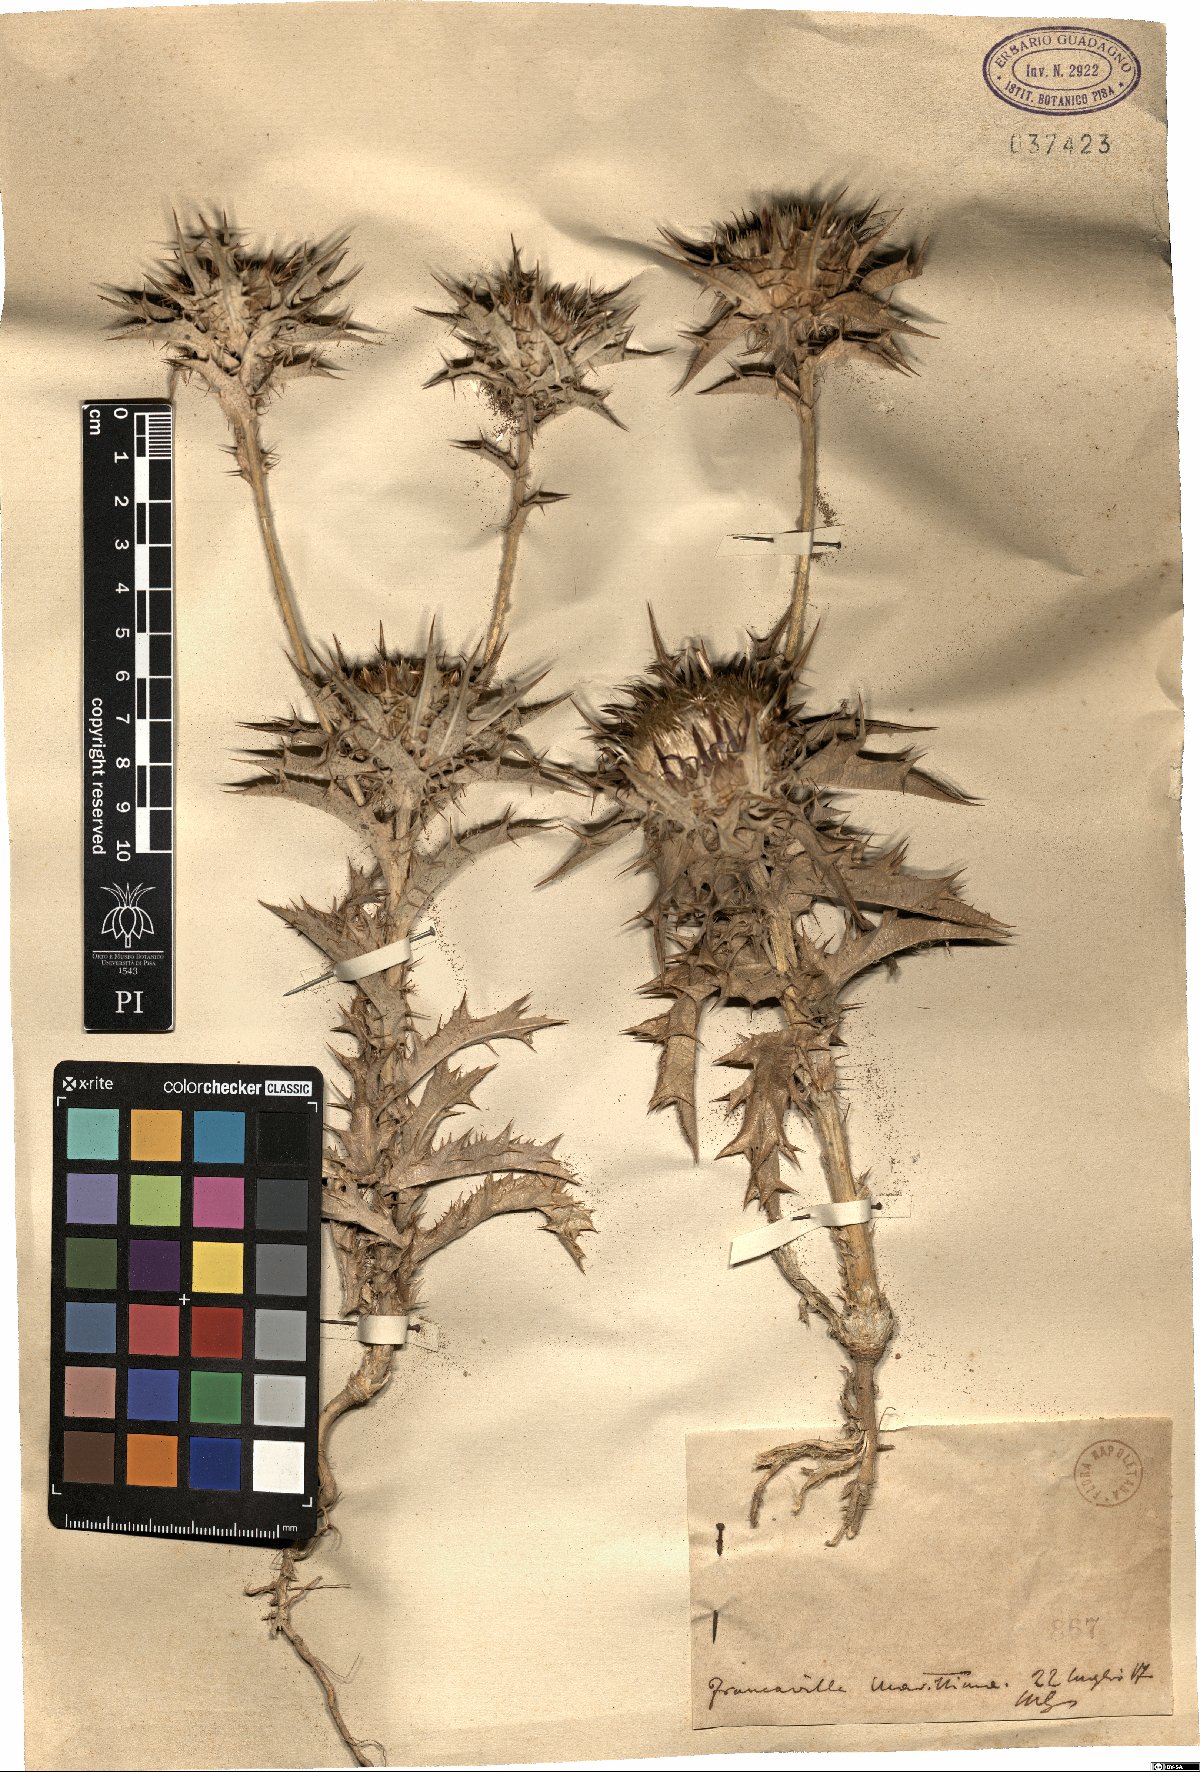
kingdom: Plantae
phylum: Tracheophyta
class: Magnoliopsida
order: Asterales
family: Asteraceae
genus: Carlina
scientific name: Carlina
